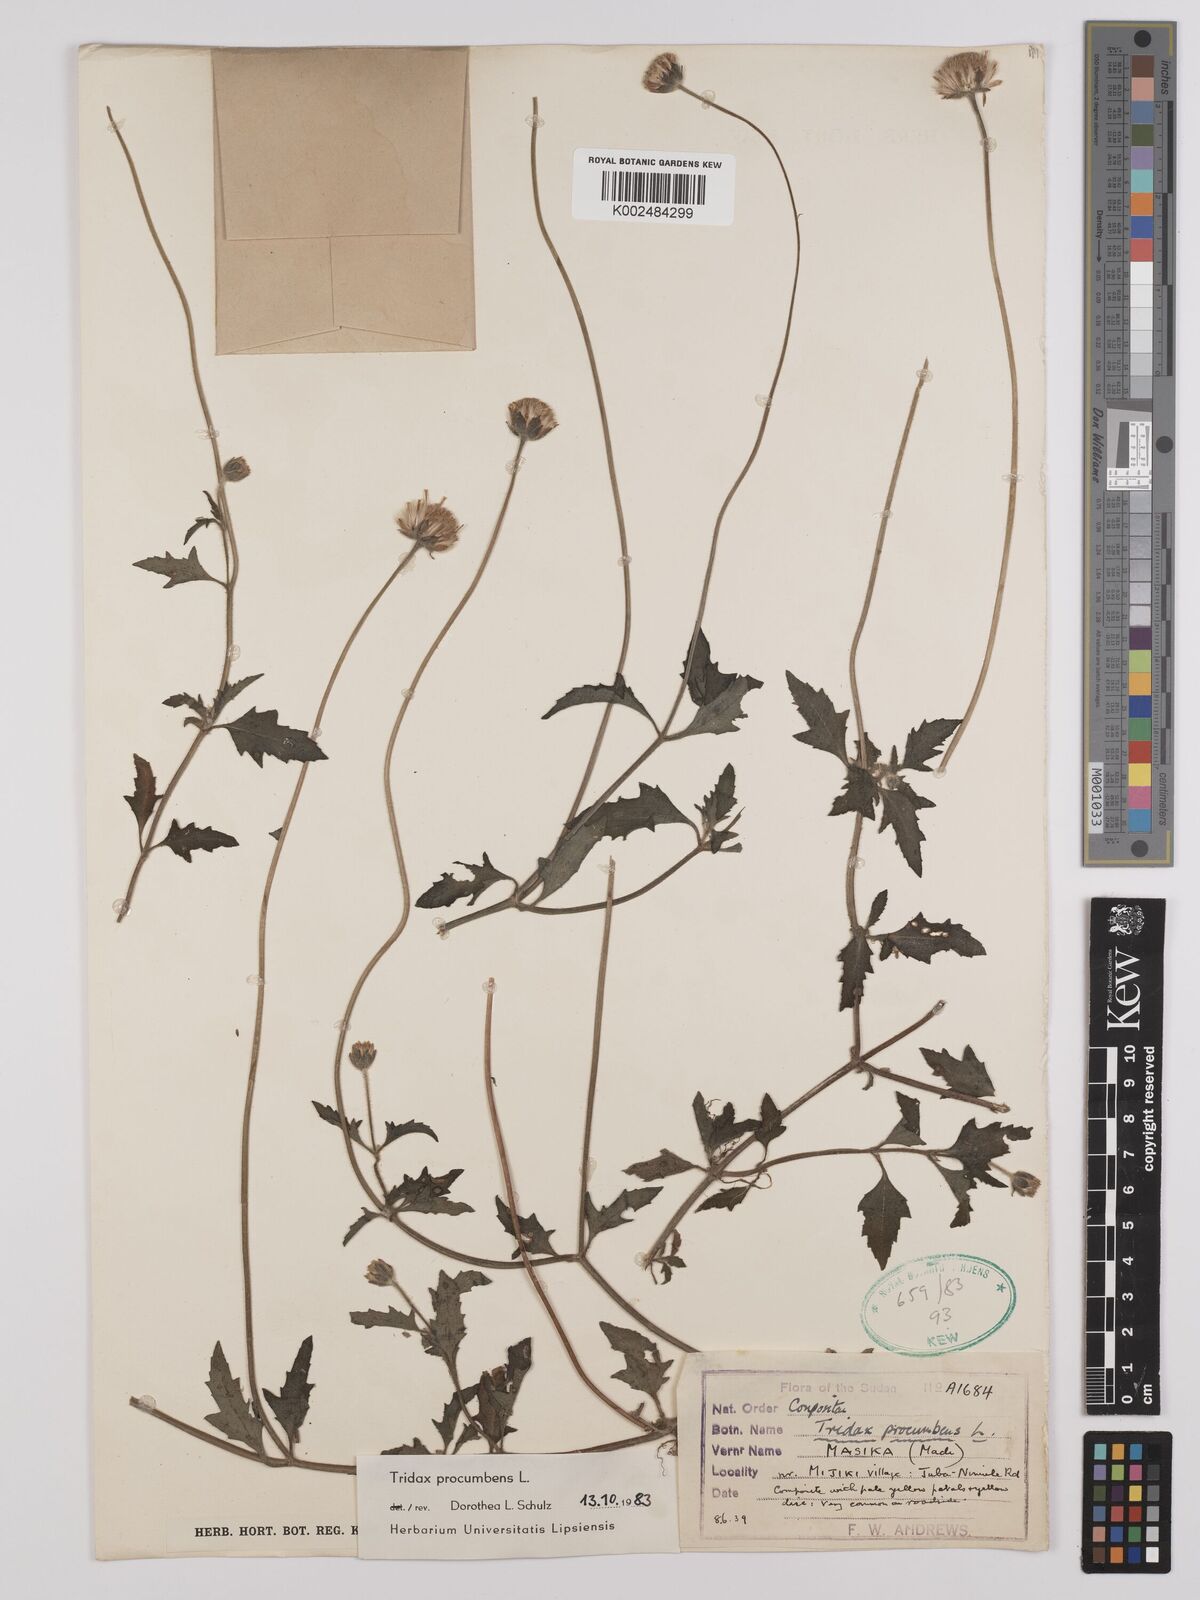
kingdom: Plantae
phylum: Tracheophyta
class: Magnoliopsida
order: Asterales
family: Asteraceae
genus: Tridax
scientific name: Tridax procumbens
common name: Coatbuttons
